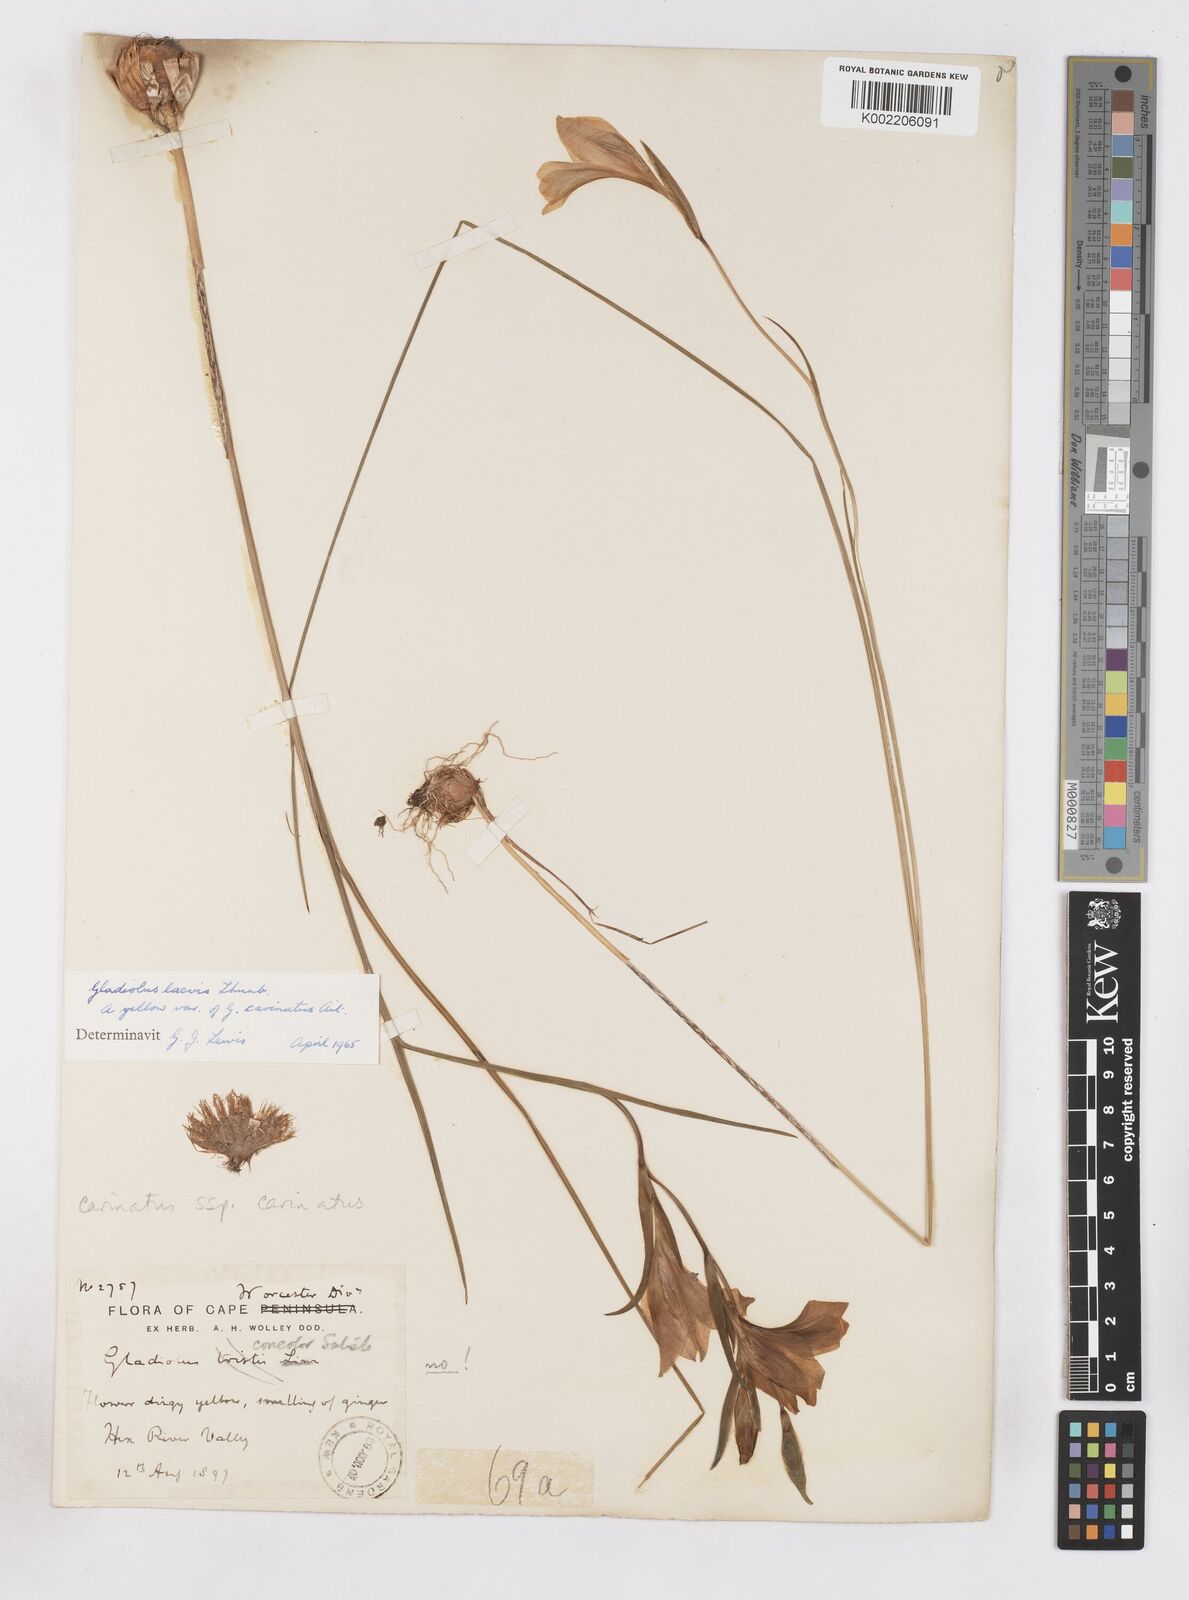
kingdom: Plantae
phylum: Tracheophyta
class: Liliopsida
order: Asparagales
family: Iridaceae
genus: Gladiolus
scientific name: Gladiolus carinatus
